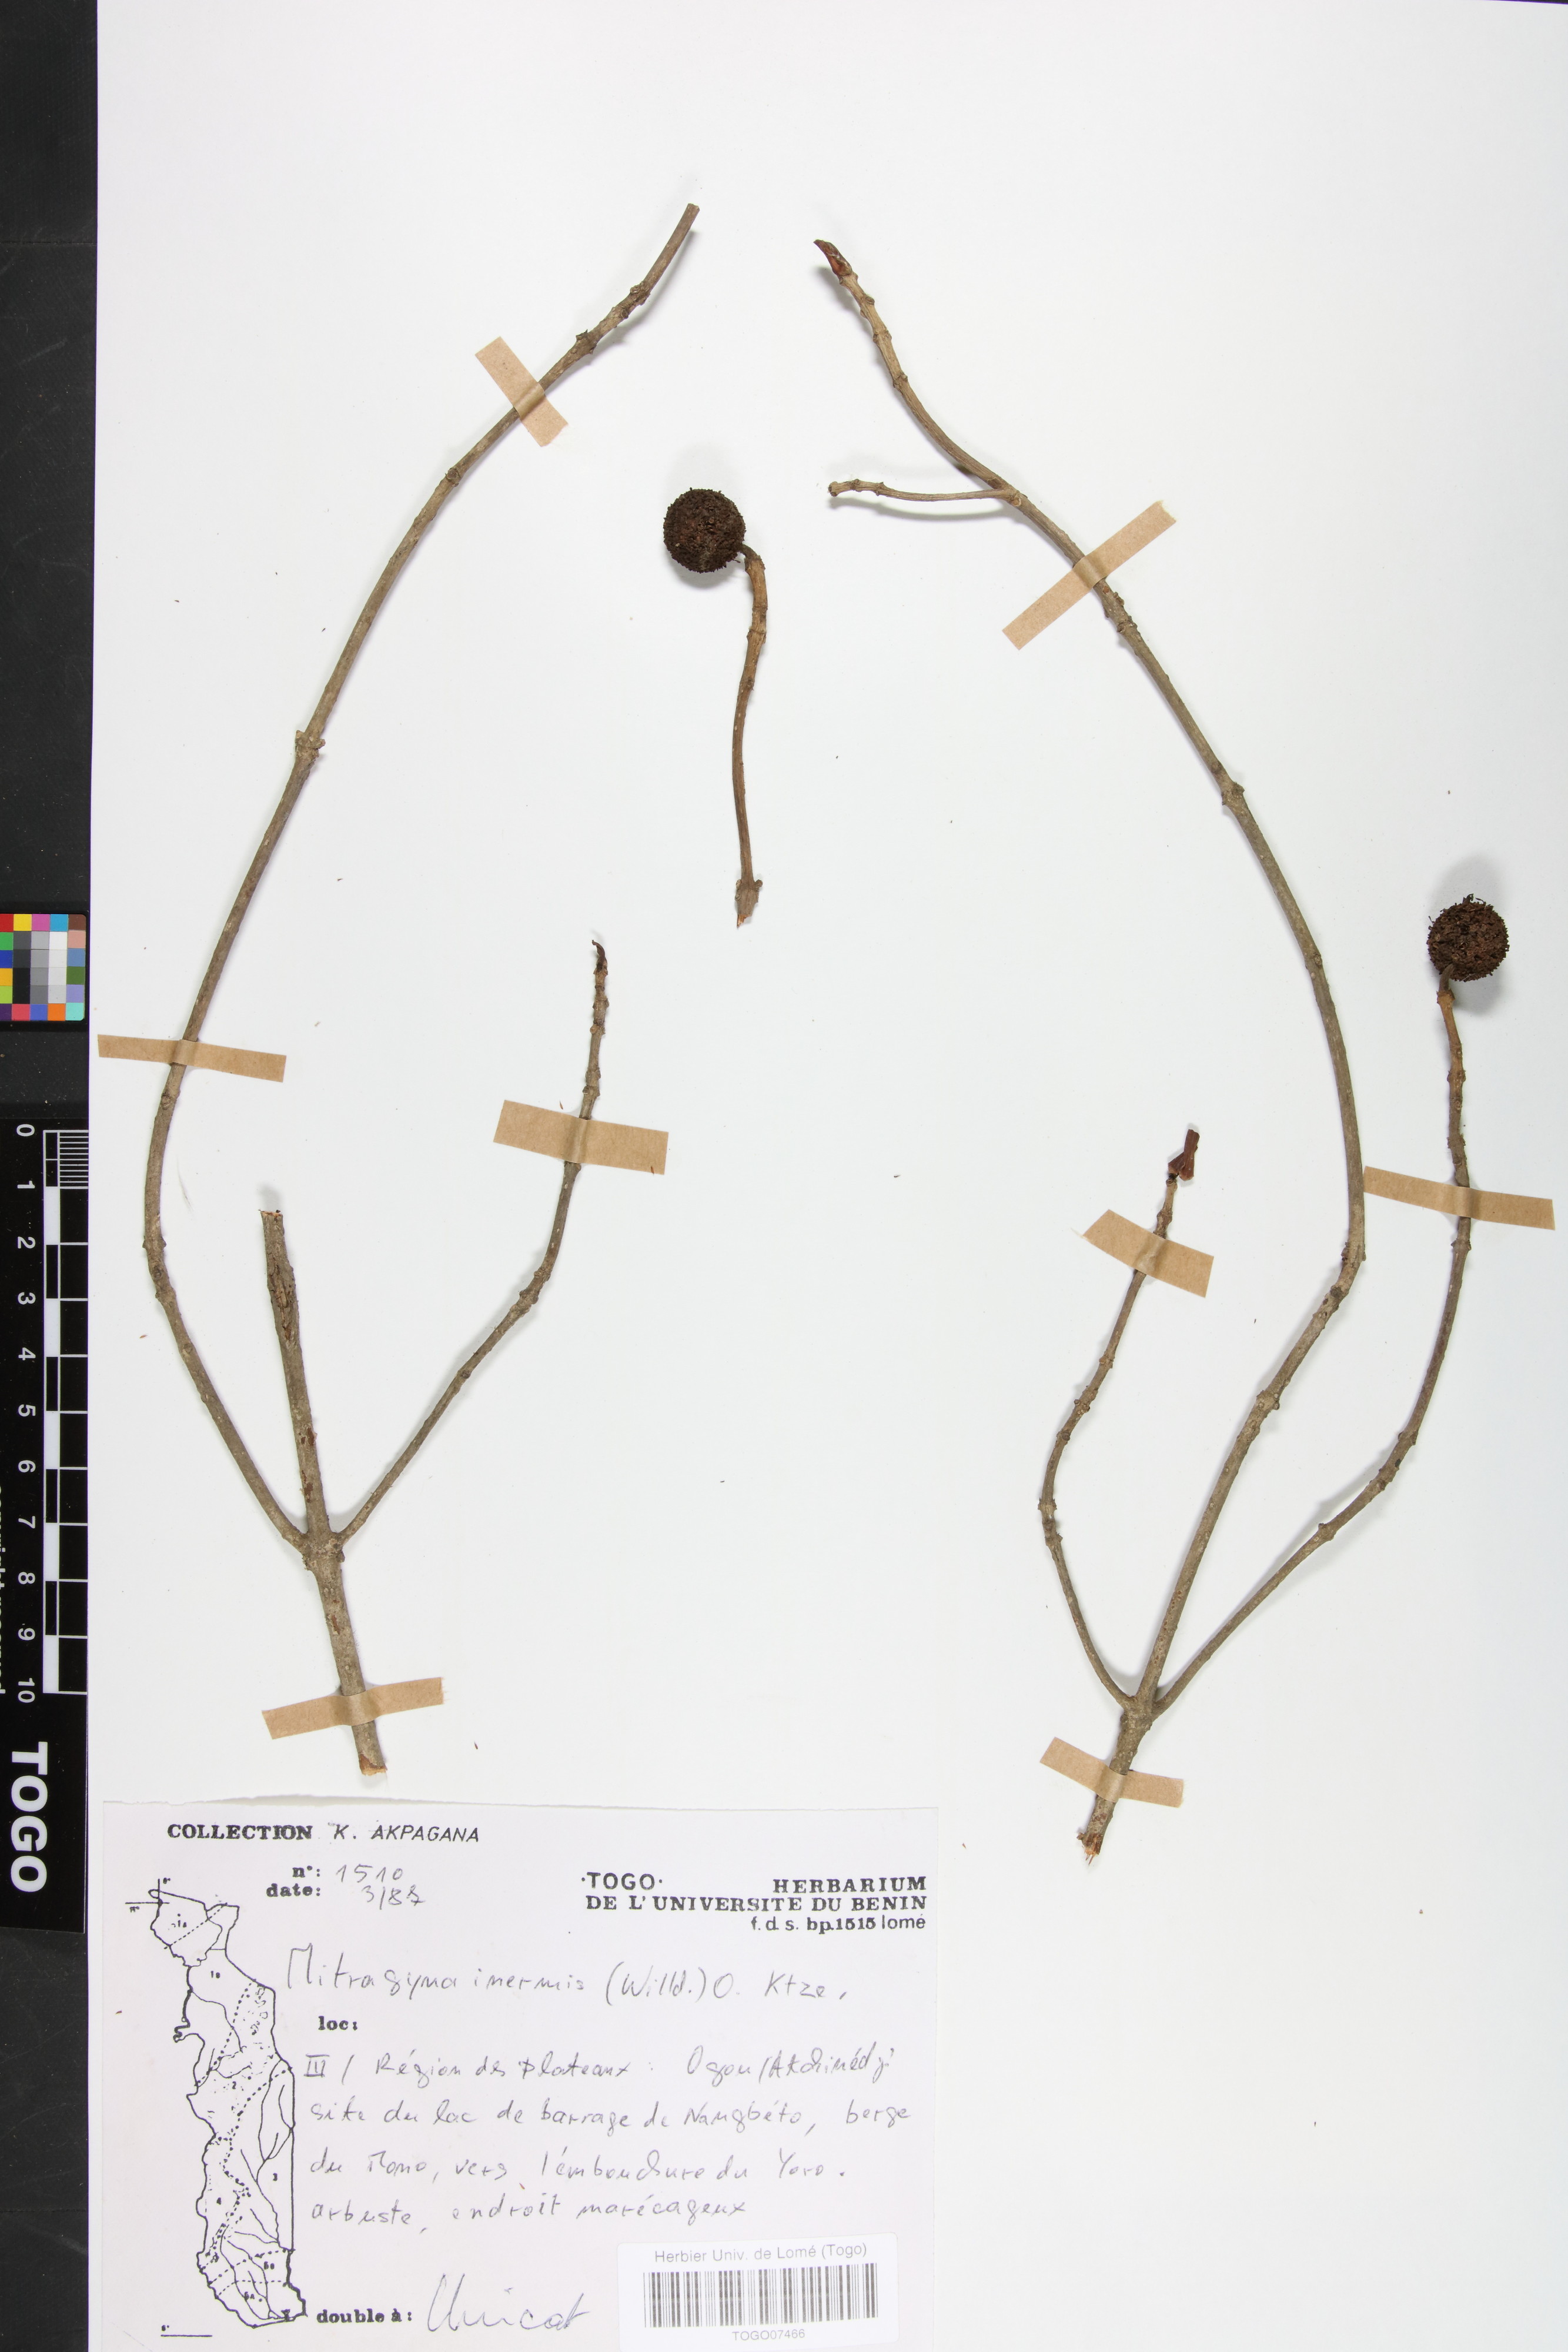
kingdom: Plantae
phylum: Tracheophyta
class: Magnoliopsida
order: Gentianales
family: Rubiaceae
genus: Mitragyna
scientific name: Mitragyna inermis
